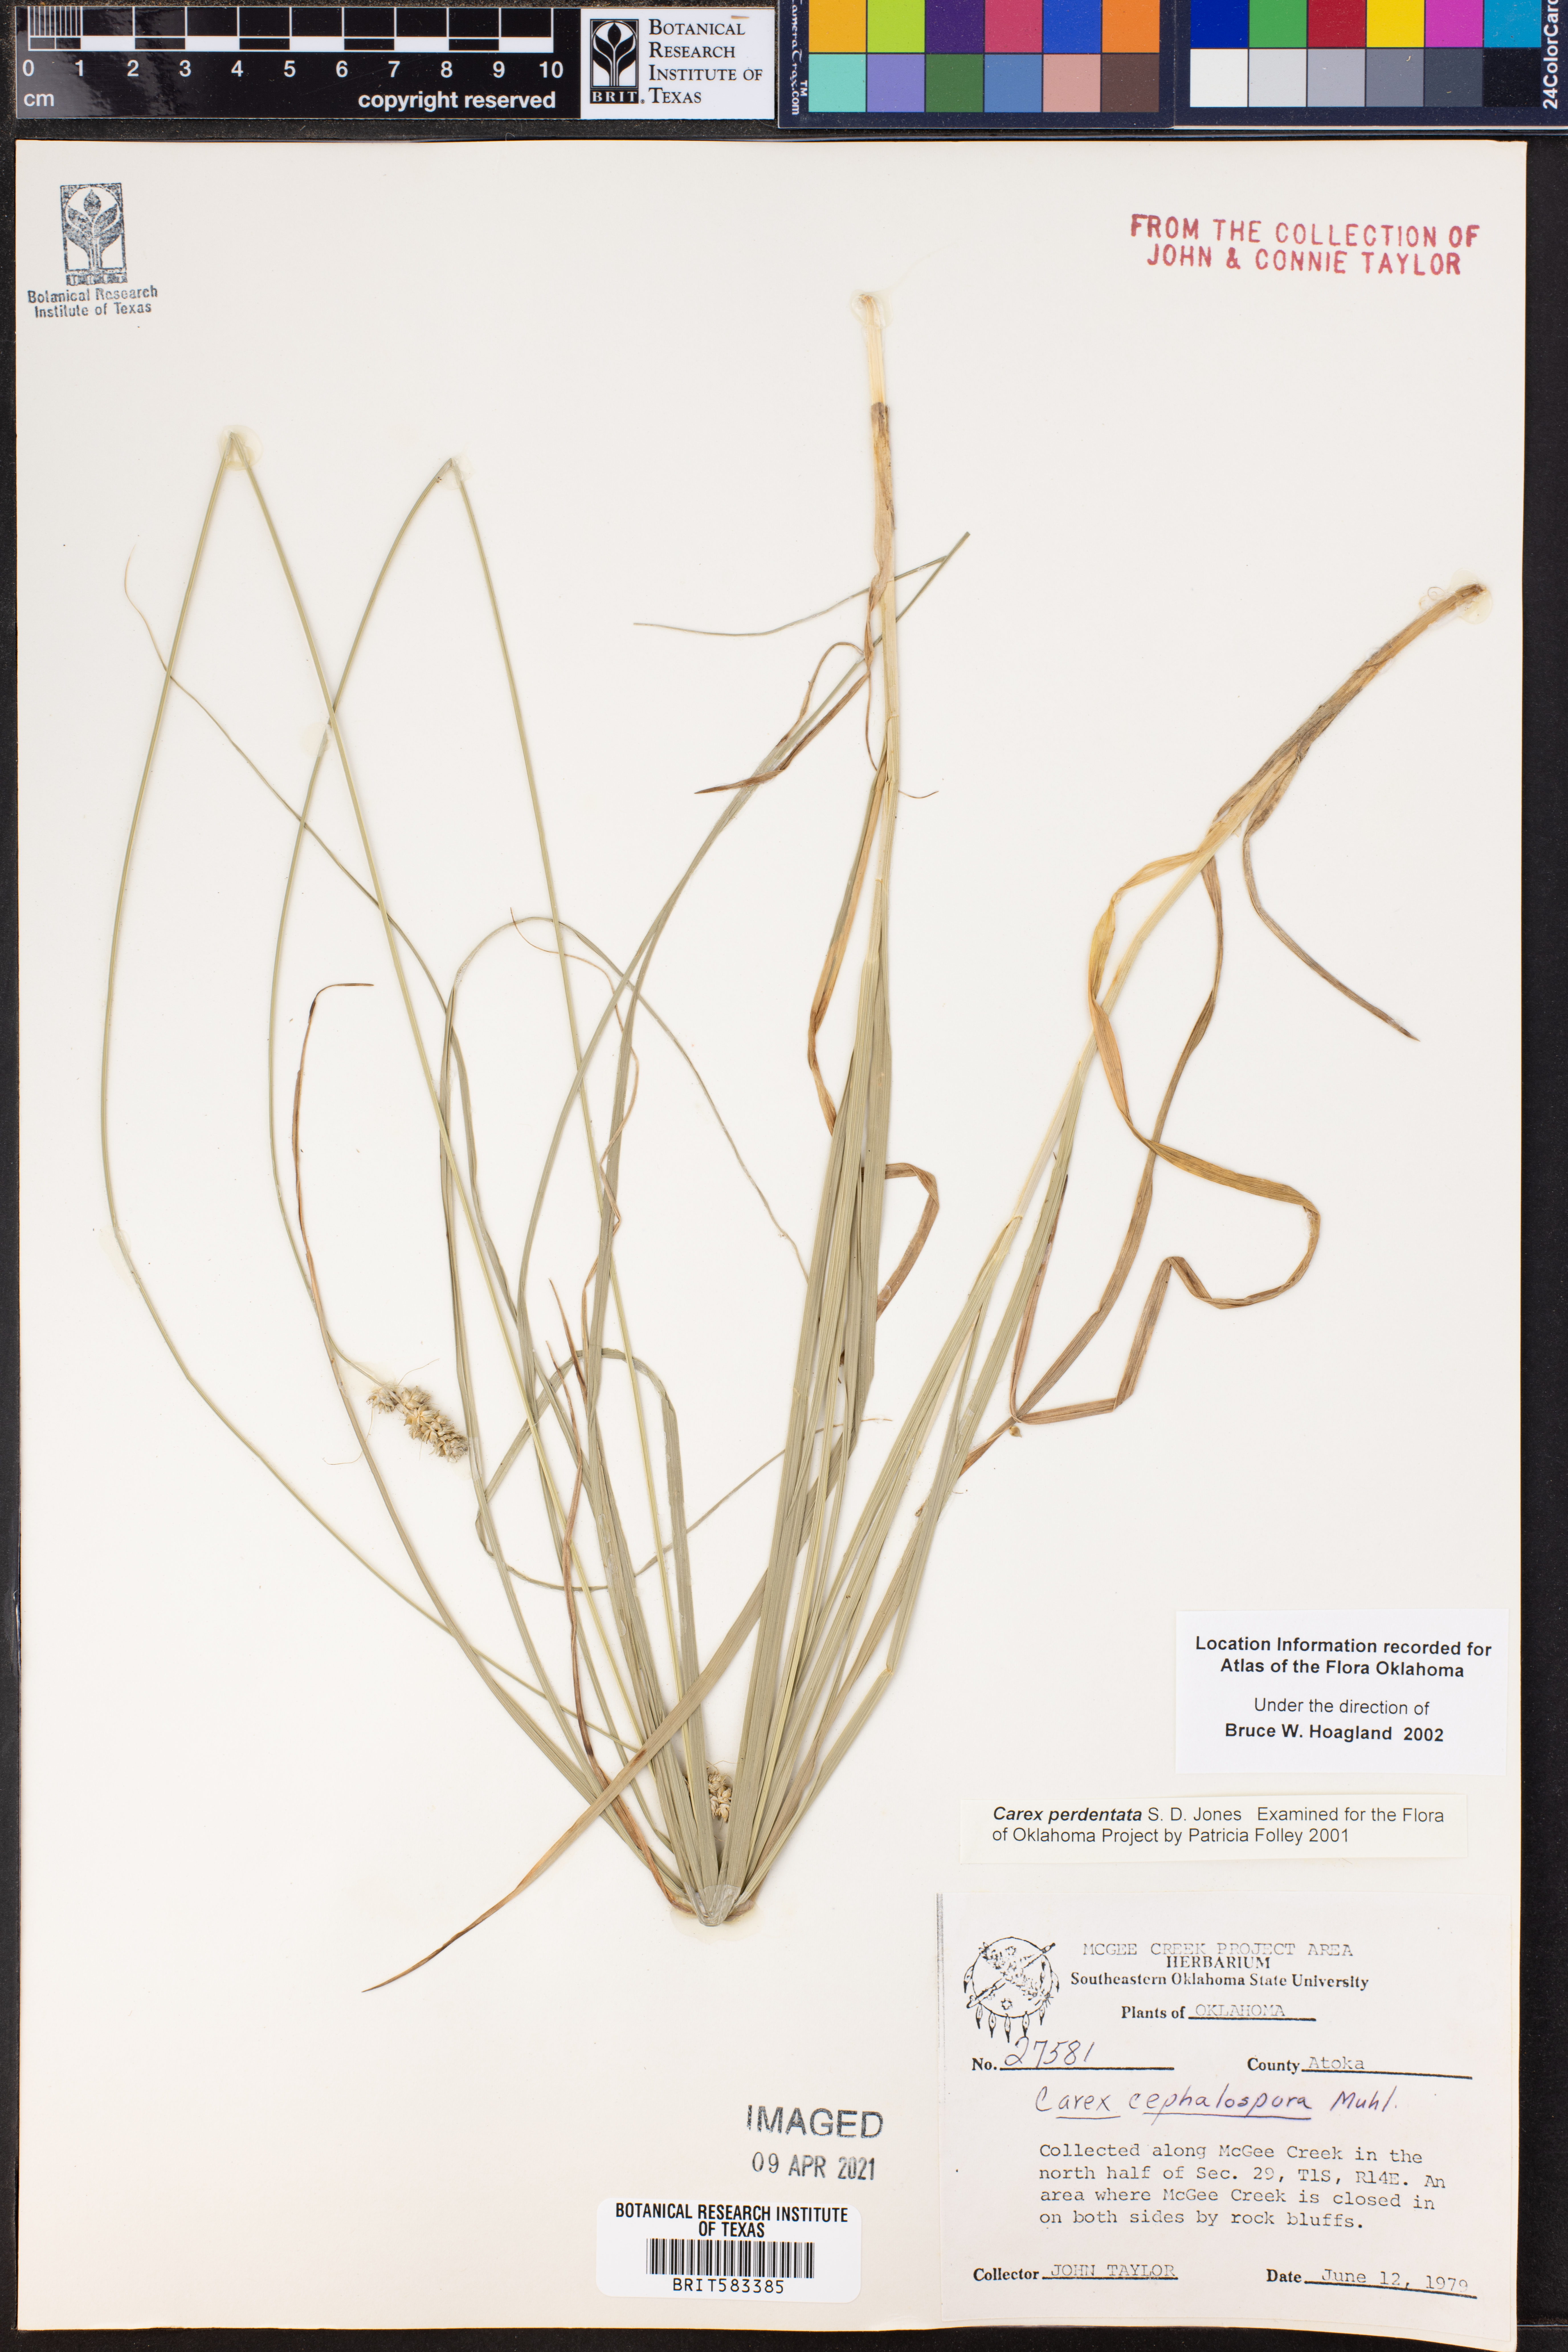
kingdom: Plantae
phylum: Tracheophyta
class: Liliopsida
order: Poales
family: Cyperaceae
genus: Carex
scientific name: Carex perdentata
